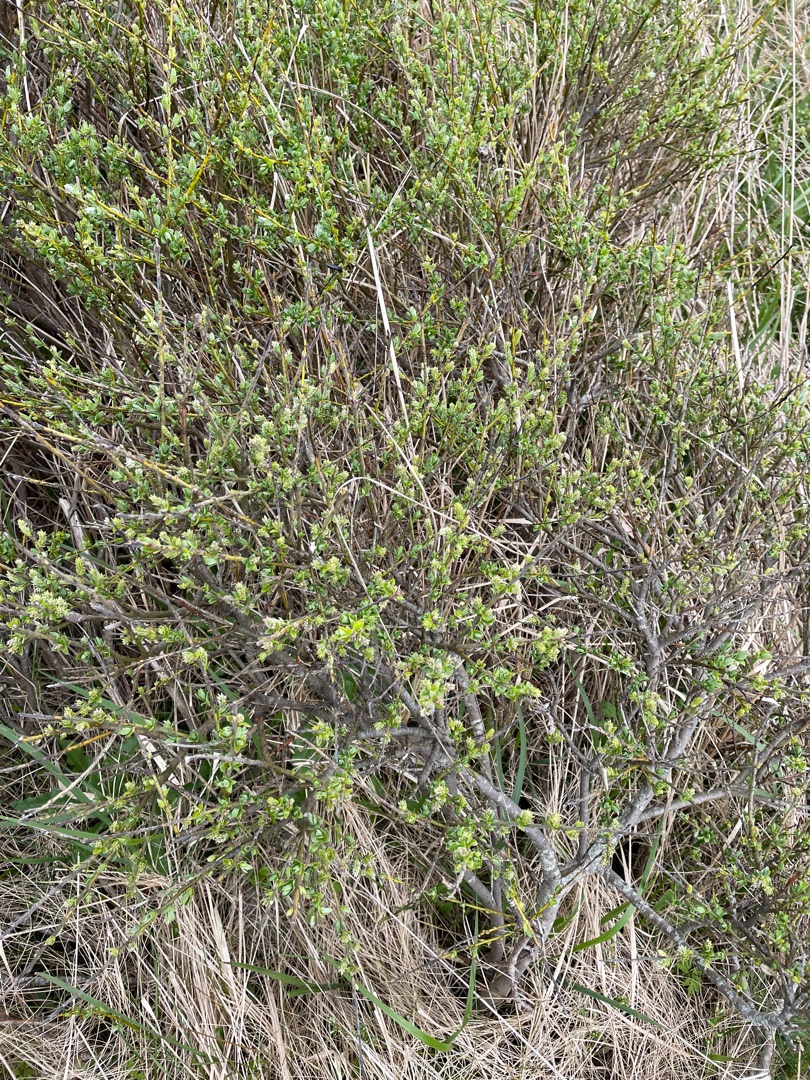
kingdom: Plantae
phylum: Tracheophyta
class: Magnoliopsida
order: Malpighiales
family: Salicaceae
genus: Salix
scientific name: Salix repens
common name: Krybende pil
